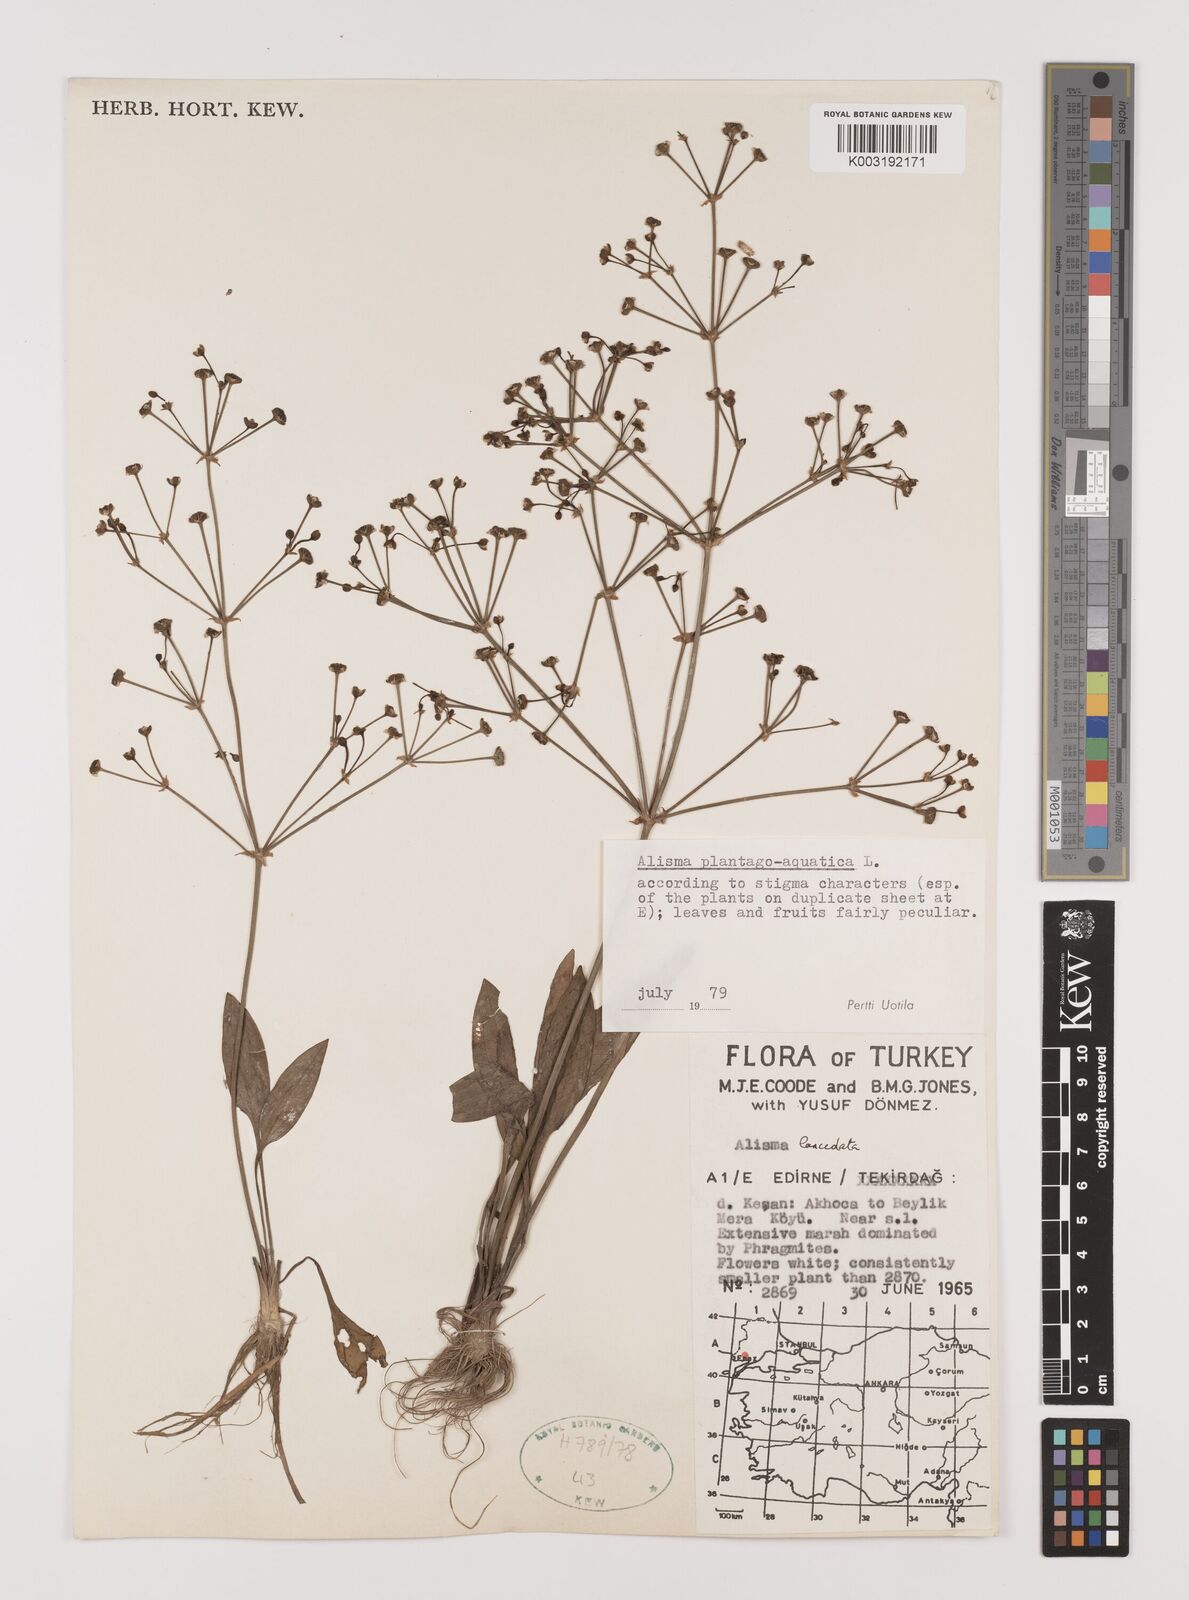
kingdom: Plantae
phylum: Tracheophyta
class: Liliopsida
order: Alismatales
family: Alismataceae
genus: Alisma
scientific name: Alisma plantago-aquatica
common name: Water-plantain
